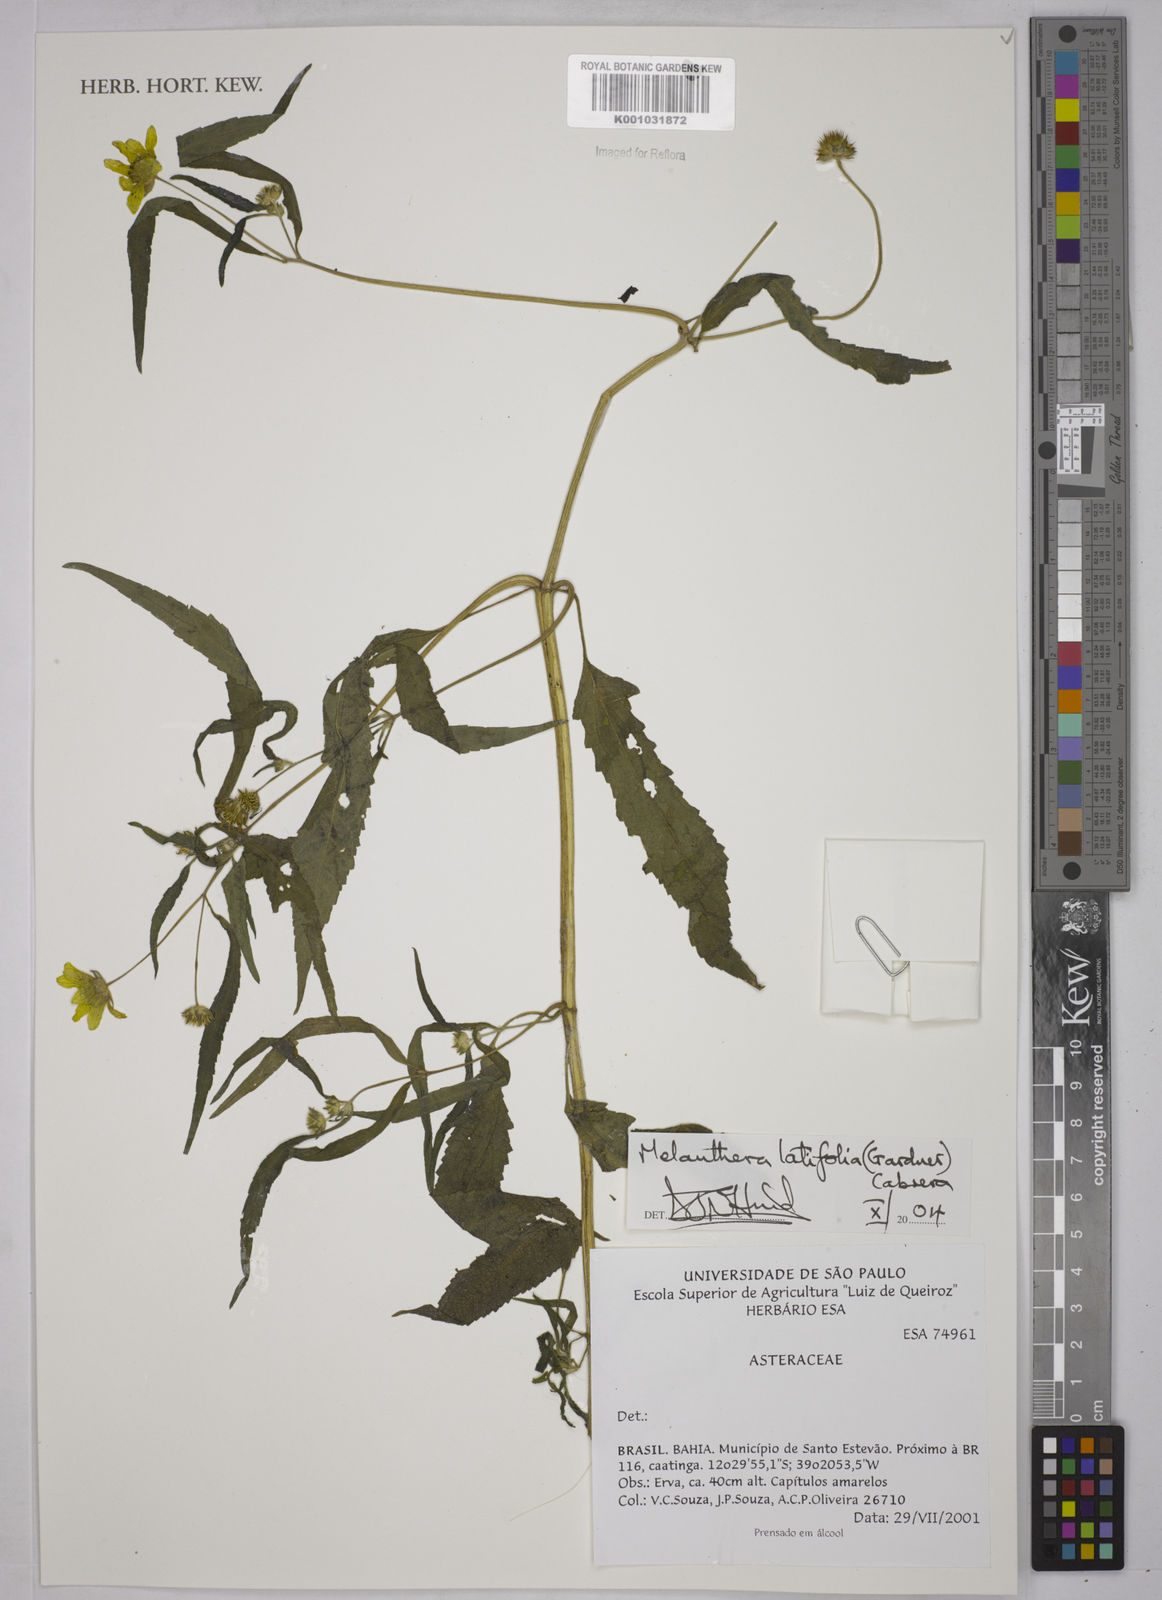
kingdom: Plantae
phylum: Tracheophyta
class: Magnoliopsida
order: Asterales
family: Asteraceae
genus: Echinocephalum
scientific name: Echinocephalum latifolium
